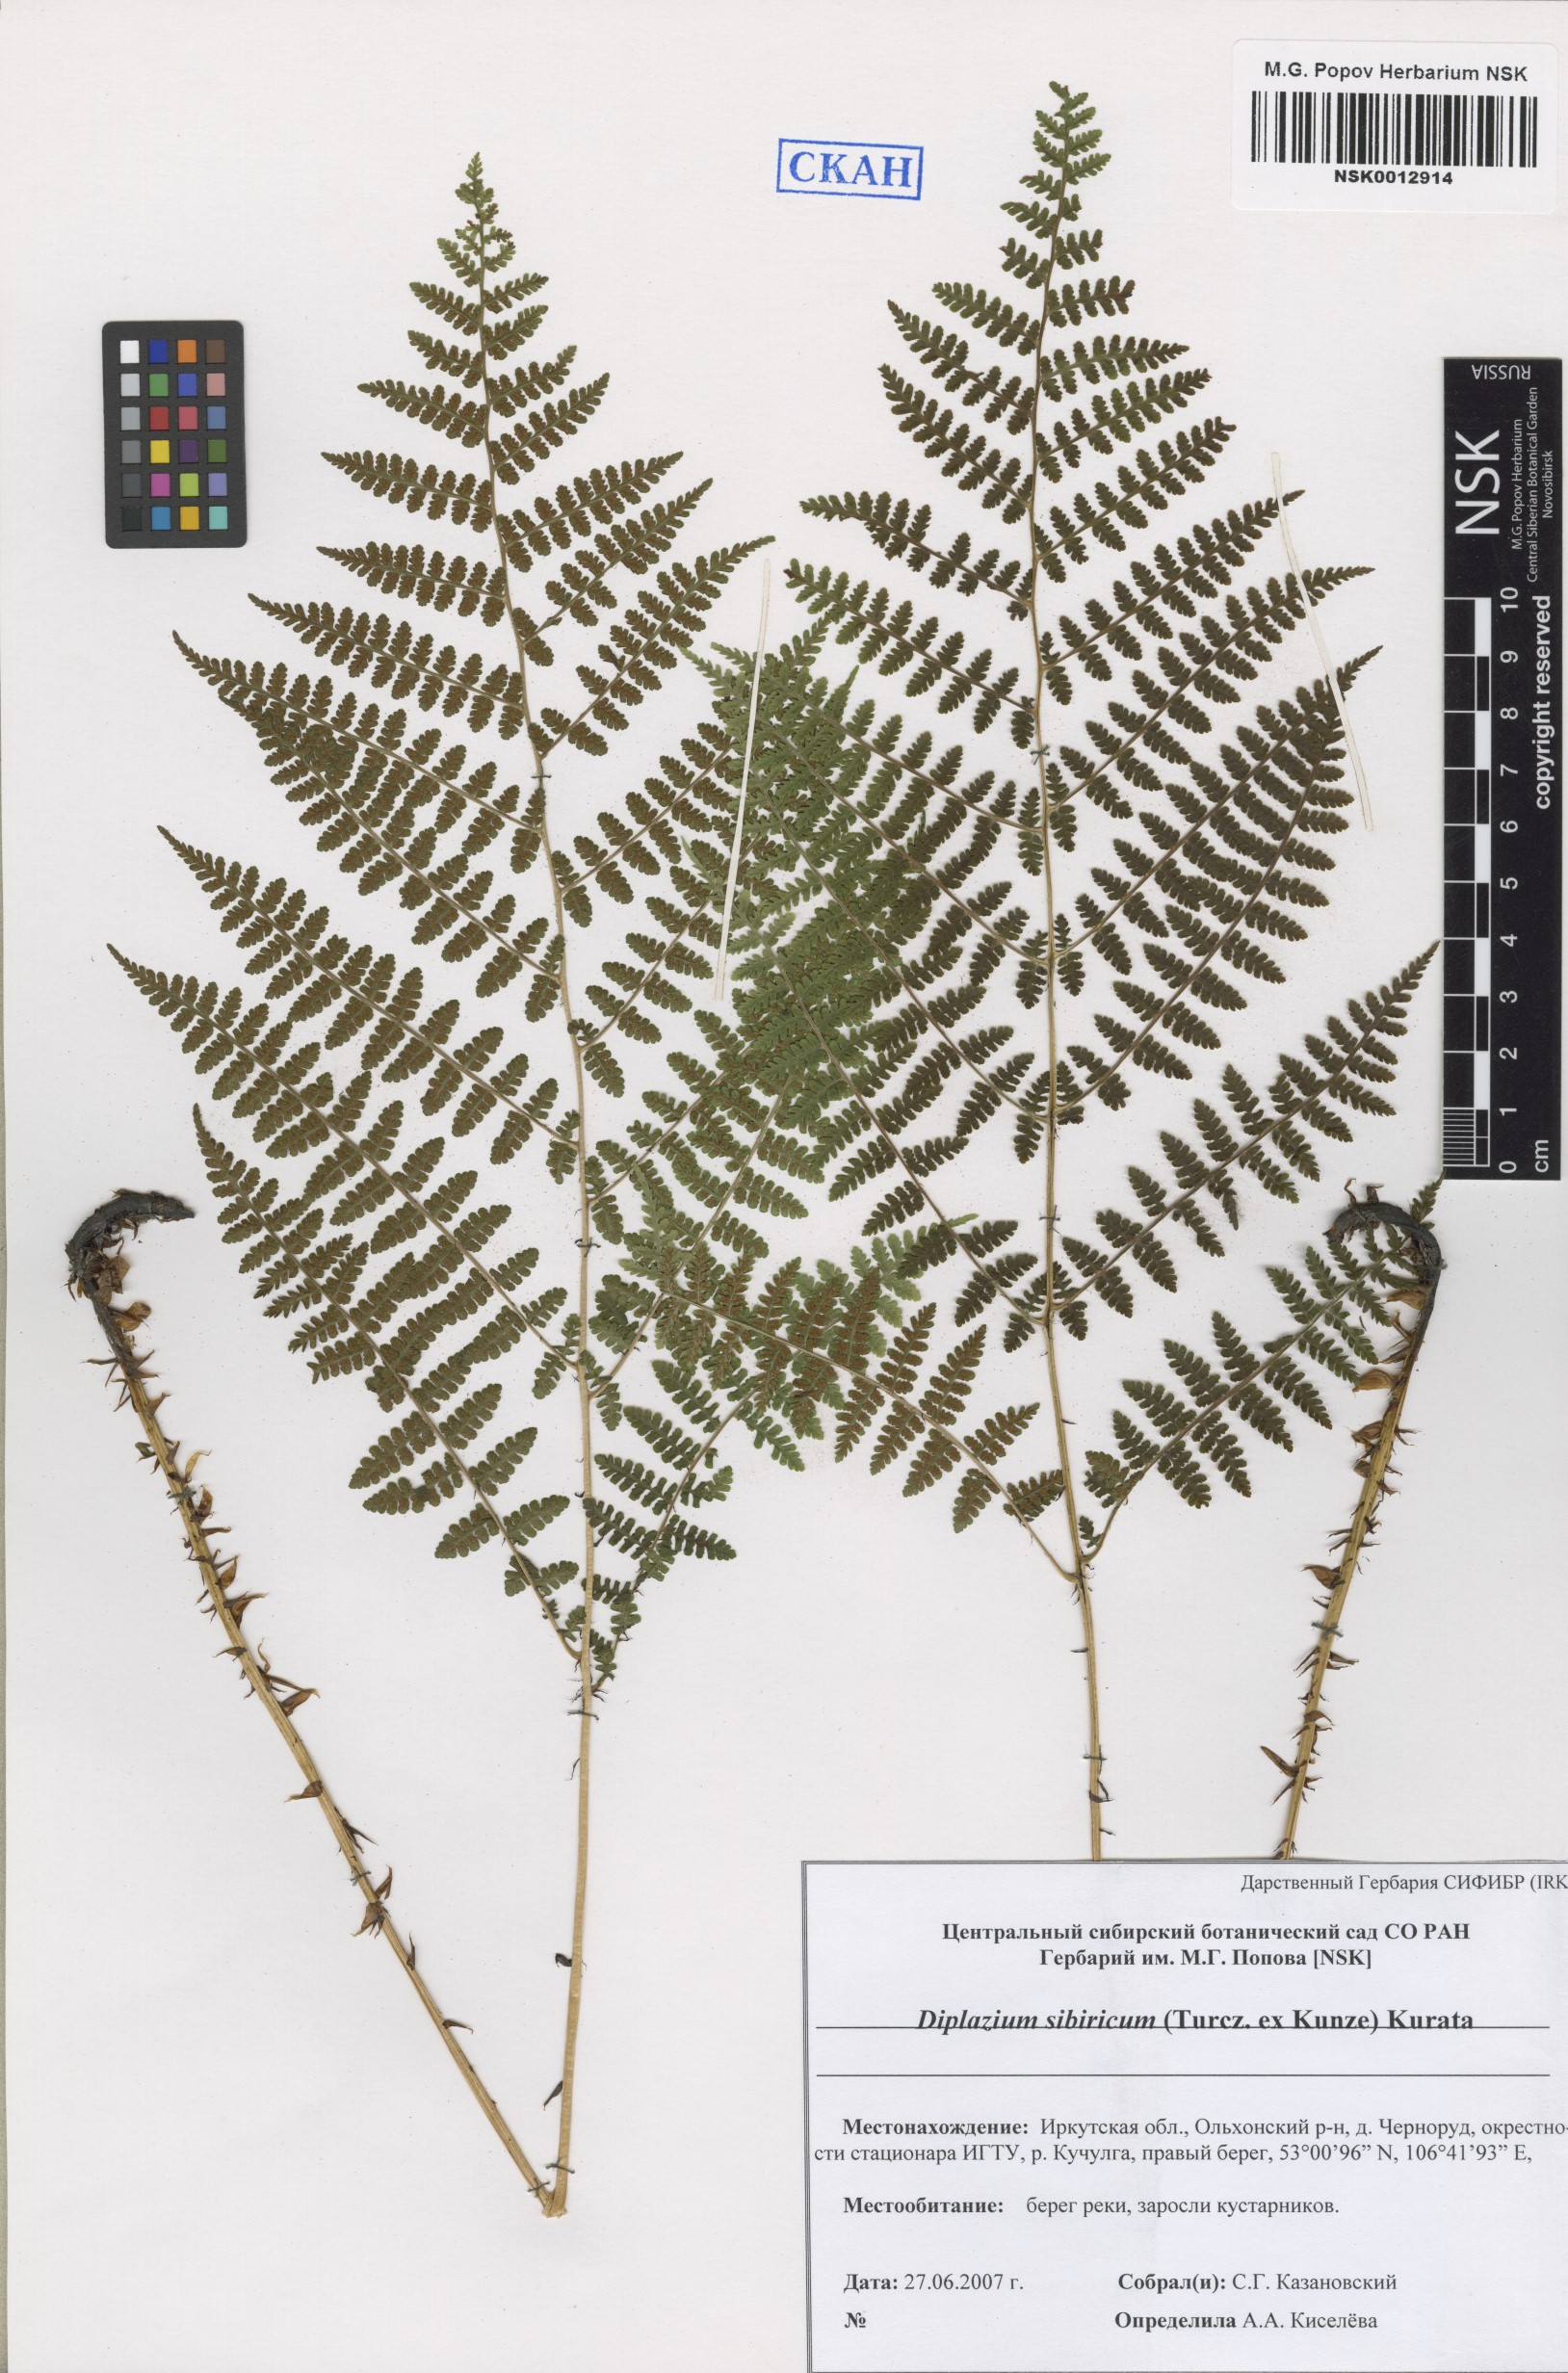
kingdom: Plantae
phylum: Tracheophyta
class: Polypodiopsida
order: Polypodiales
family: Athyriaceae
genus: Diplazium
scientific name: Diplazium sibiricum
